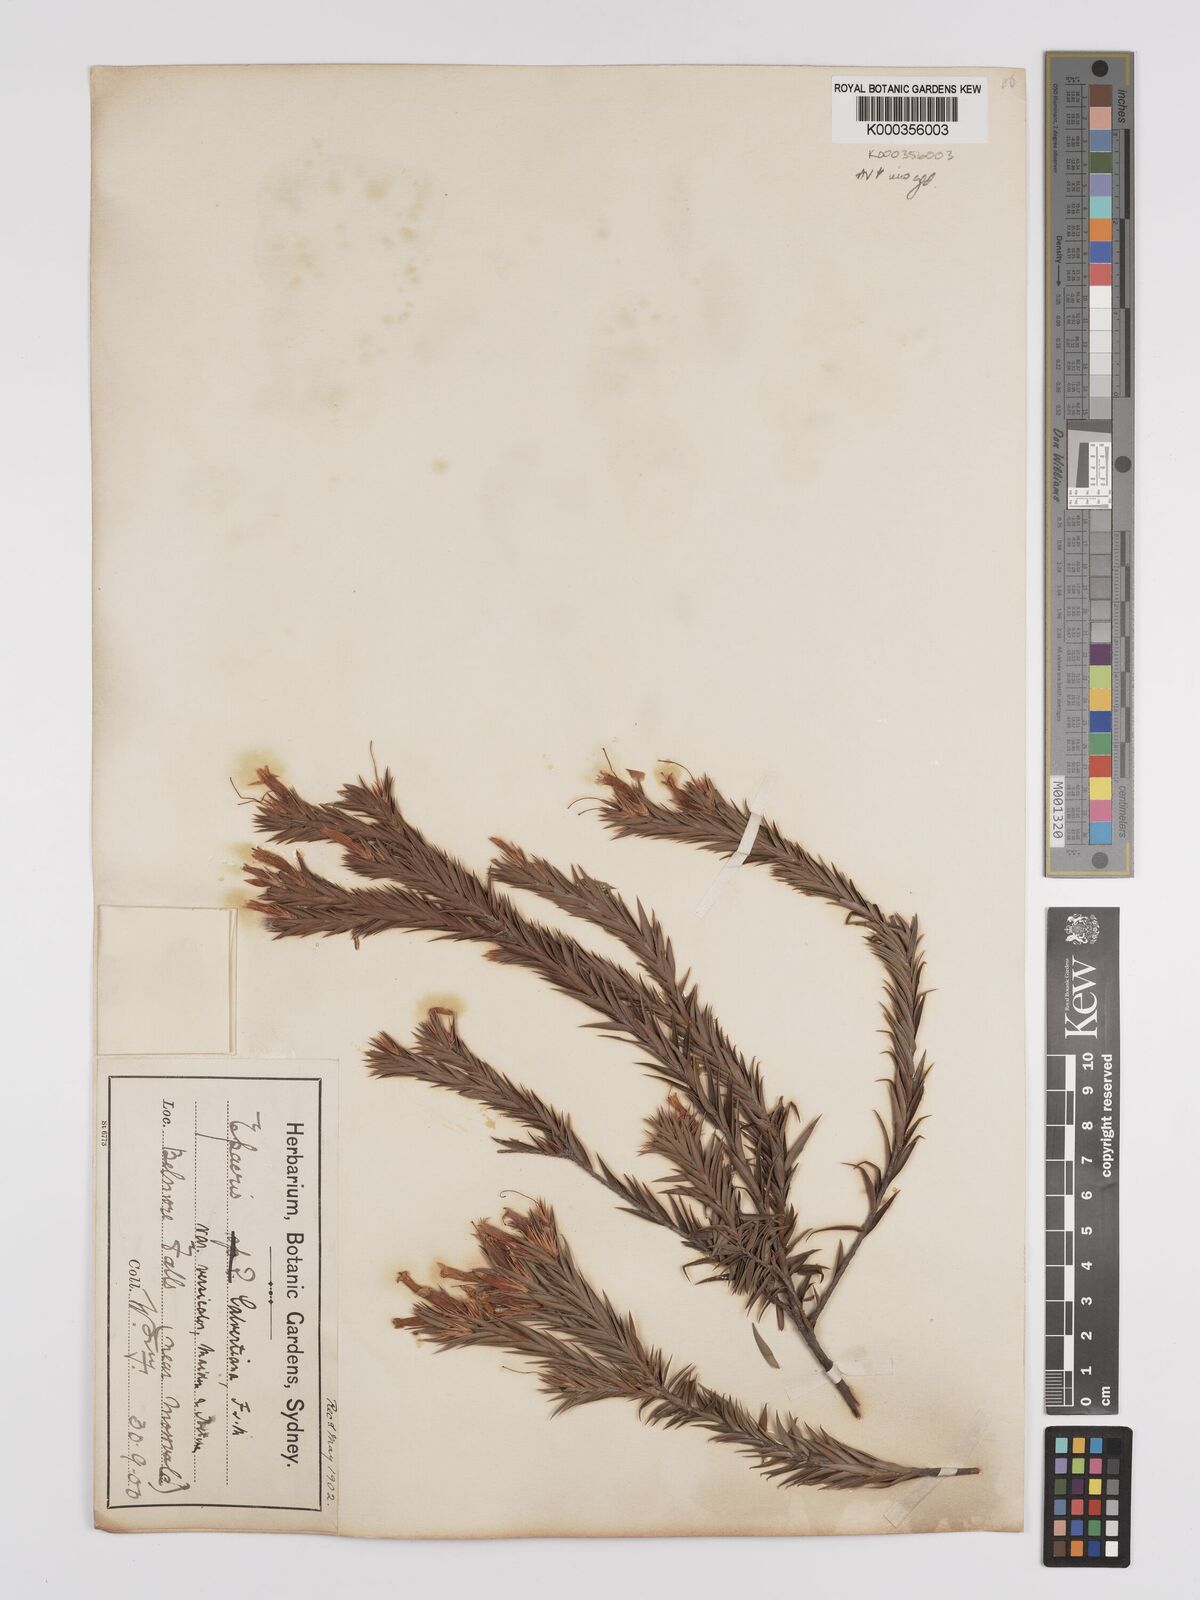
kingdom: Plantae
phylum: Tracheophyta
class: Magnoliopsida
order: Ericales
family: Ericaceae
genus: Epacris
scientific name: Epacris calvertiana
